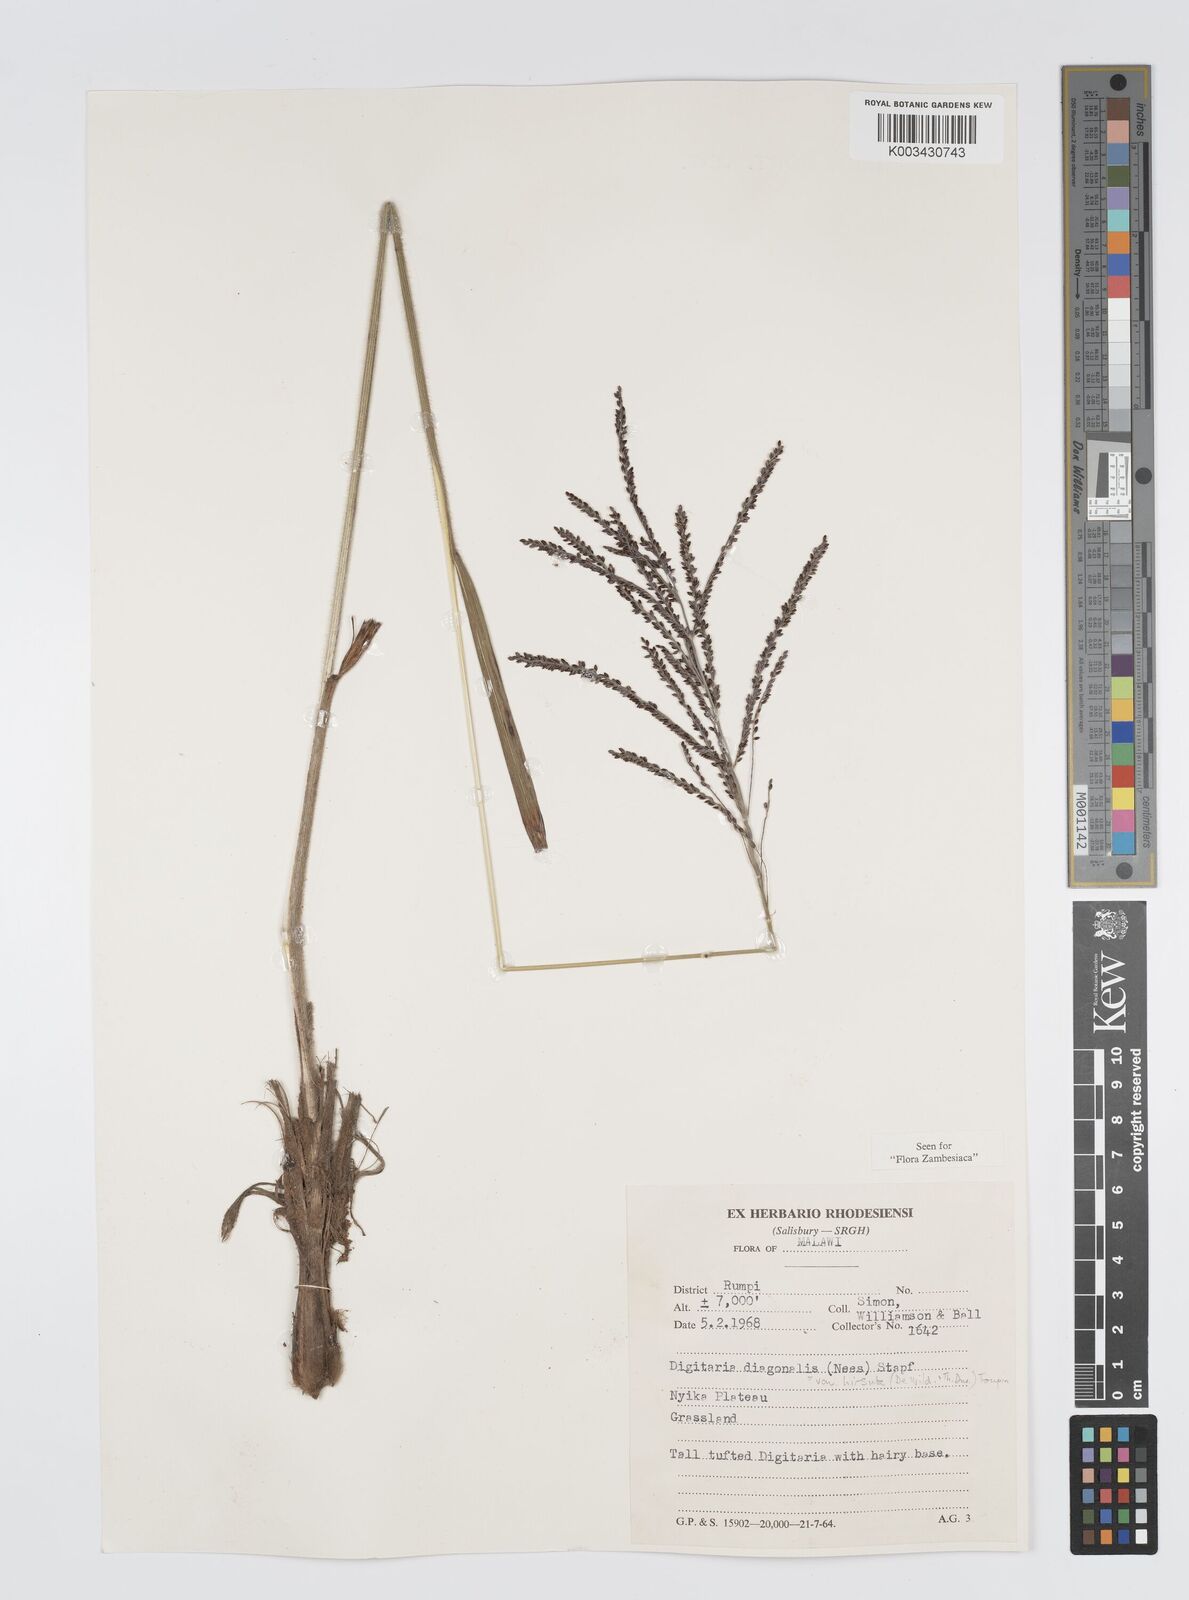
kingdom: Plantae
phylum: Tracheophyta
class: Liliopsida
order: Poales
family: Poaceae
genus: Digitaria
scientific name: Digitaria diagonalis
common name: Brown-seed finger grass
